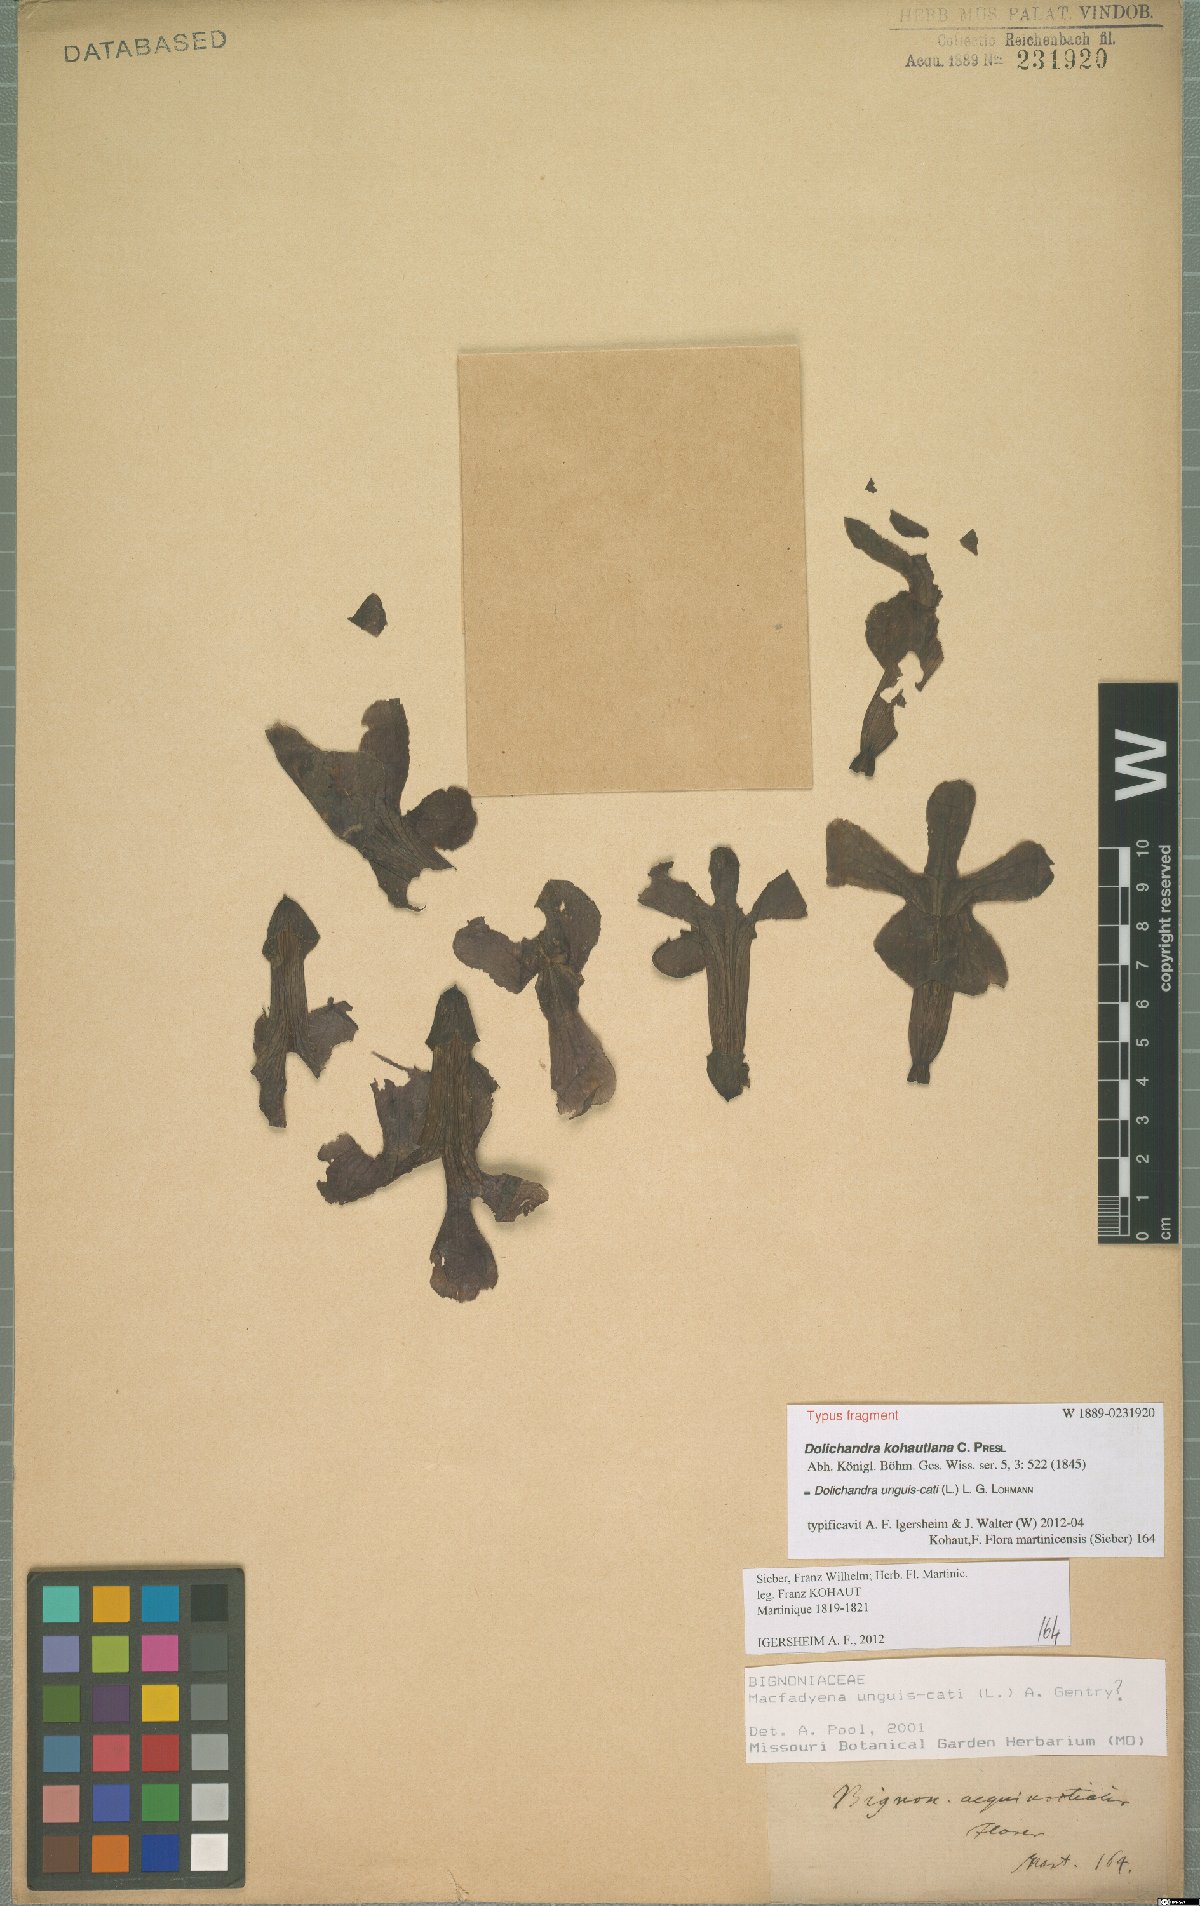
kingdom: Plantae
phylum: Tracheophyta
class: Magnoliopsida
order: Lamiales
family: Bignoniaceae
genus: Dolichandra
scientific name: Dolichandra unguis-cati
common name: Catclaw vine
